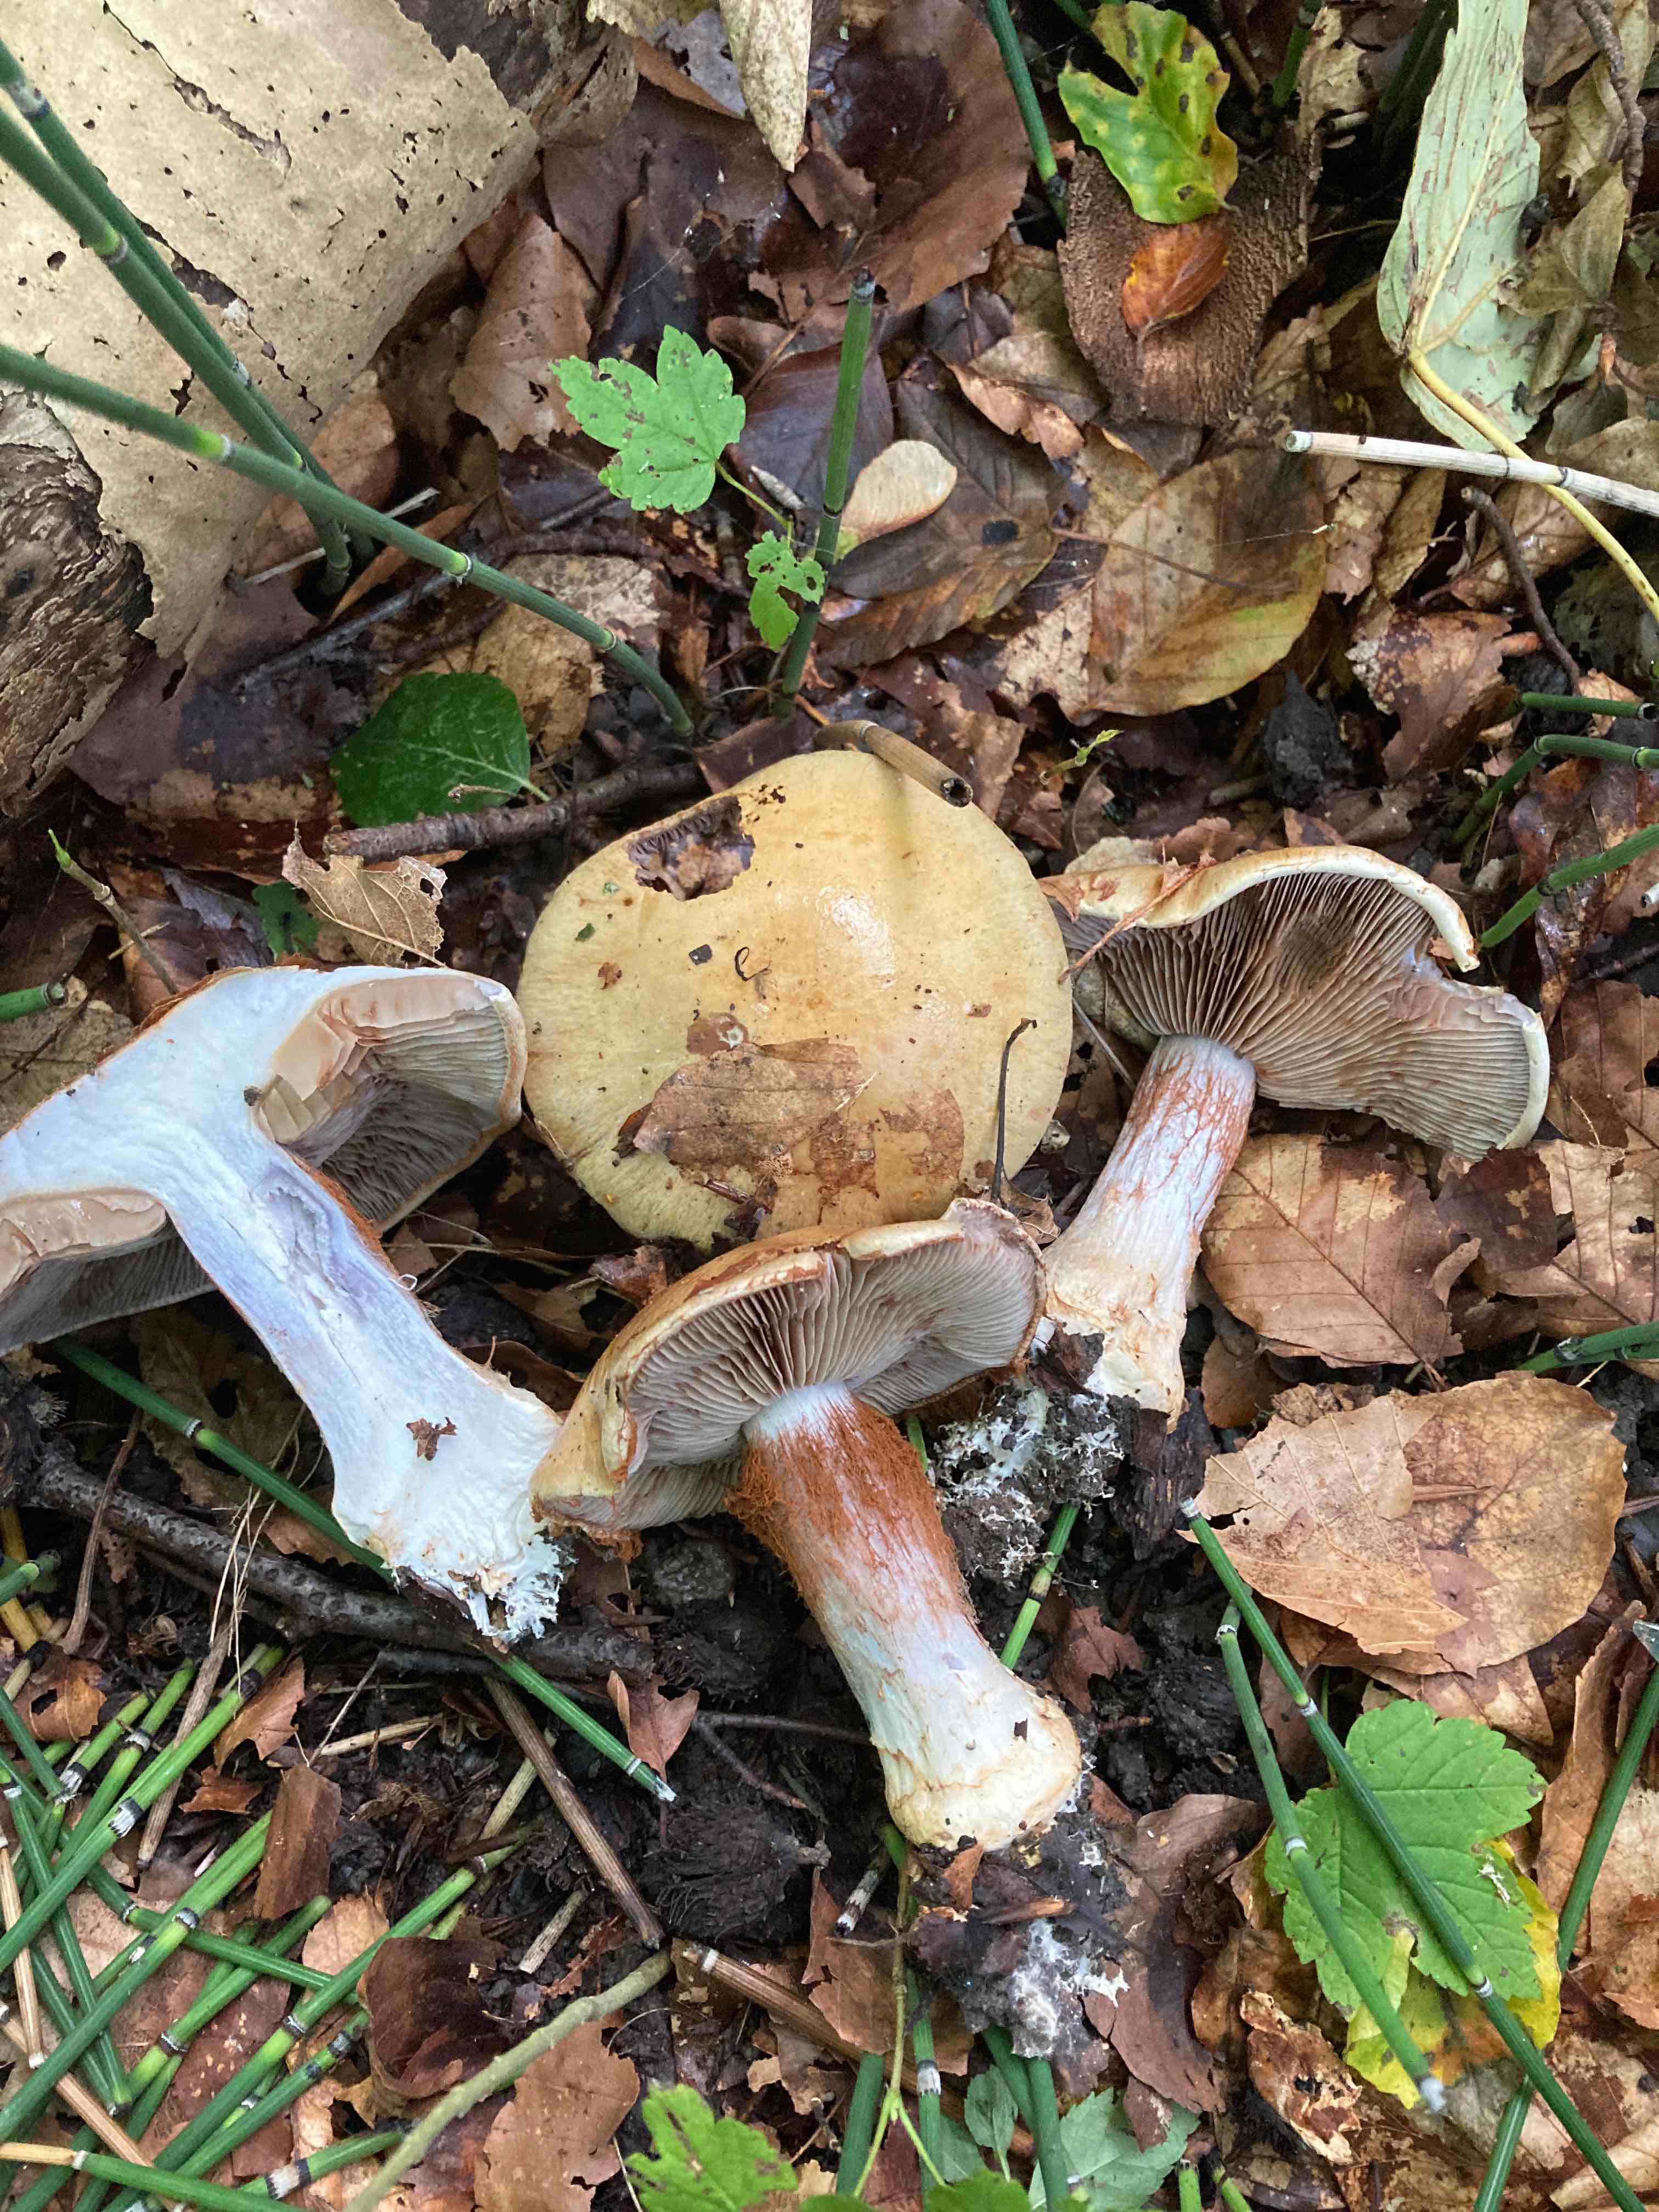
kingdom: Fungi
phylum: Basidiomycota
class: Agaricomycetes
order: Agaricales
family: Cortinariaceae
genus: Cortinarius
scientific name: Cortinarius anserinus
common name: bøge-slørhat
